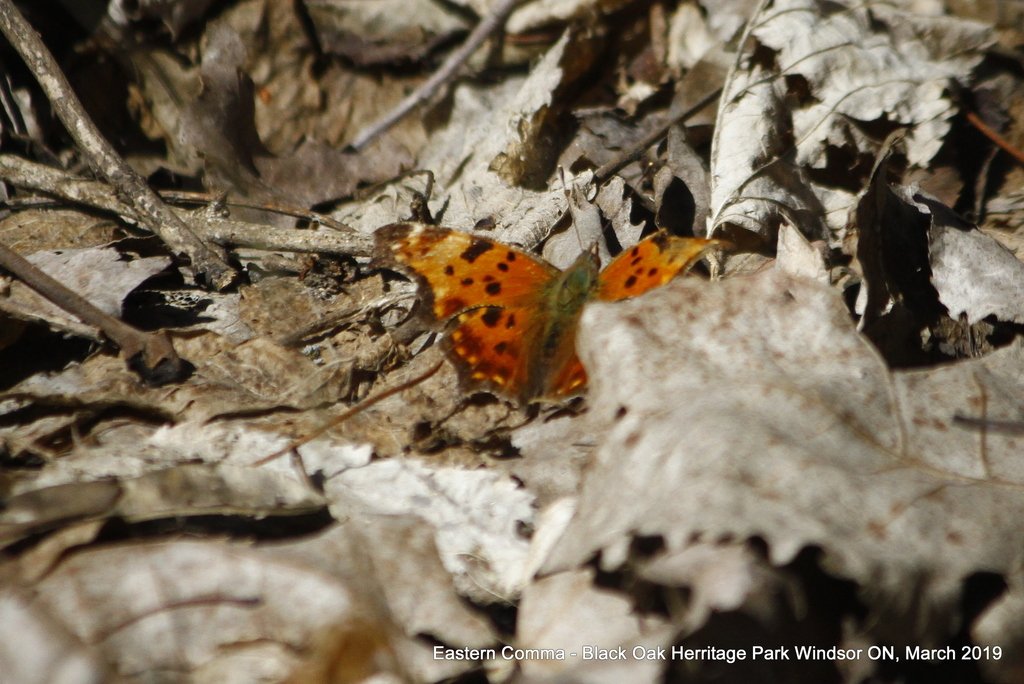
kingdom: Animalia
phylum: Arthropoda
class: Insecta
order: Lepidoptera
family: Nymphalidae
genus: Polygonia
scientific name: Polygonia comma
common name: Eastern Comma
